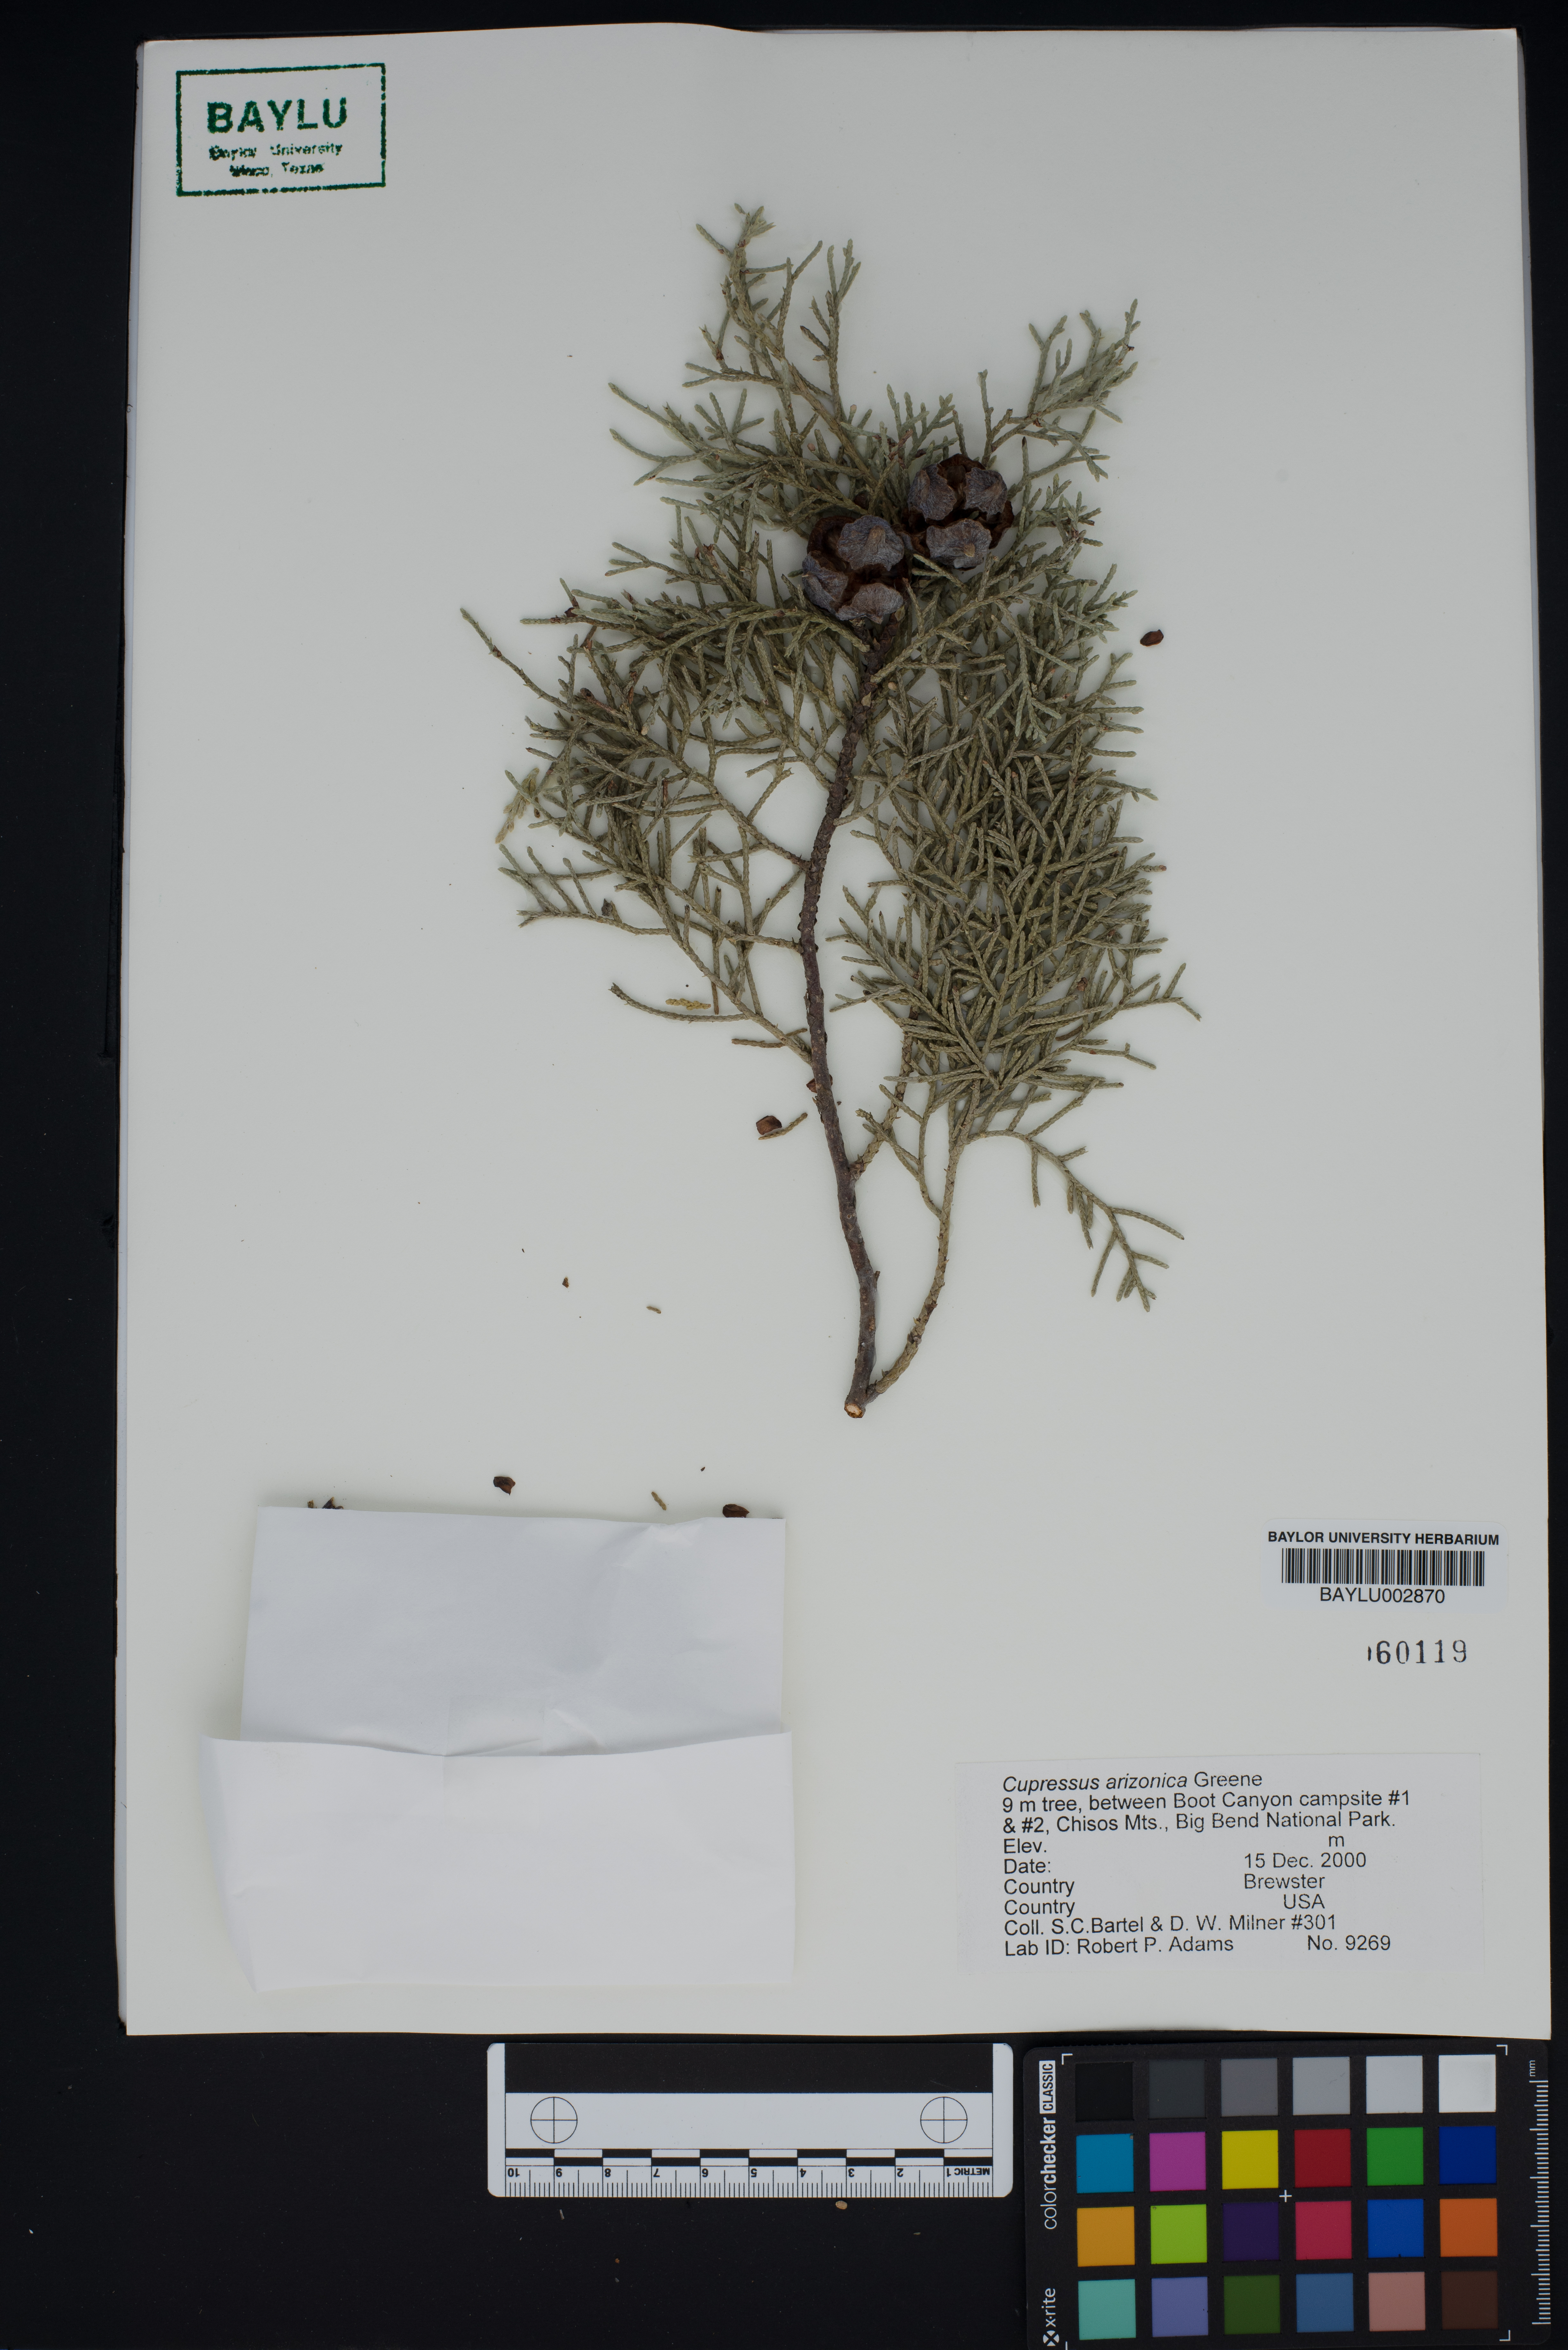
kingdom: Plantae
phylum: Tracheophyta
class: Pinopsida
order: Pinales
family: Cupressaceae
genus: Cupressus
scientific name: Cupressus arizonica
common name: Arizona cypress
